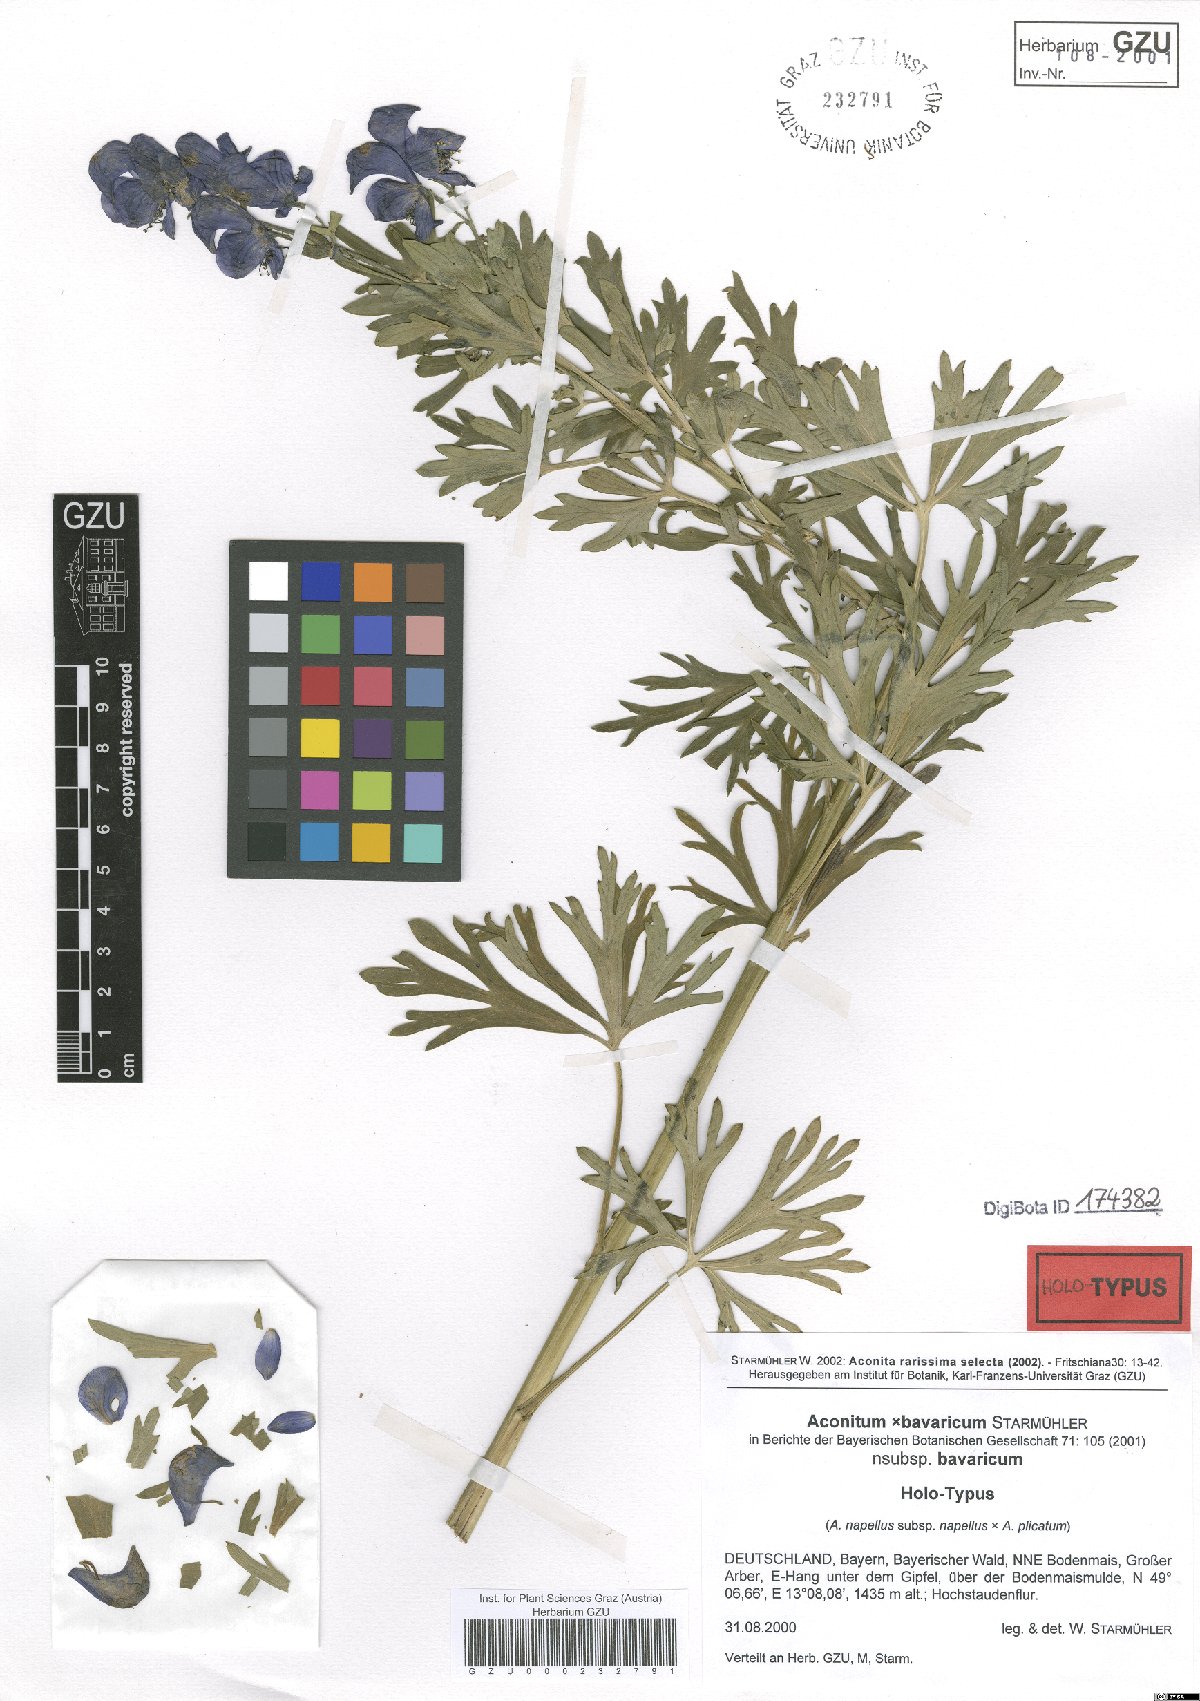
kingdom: Plantae
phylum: Tracheophyta
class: Magnoliopsida
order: Ranunculales
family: Ranunculaceae
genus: Aconitum
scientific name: Aconitum bavaricum
